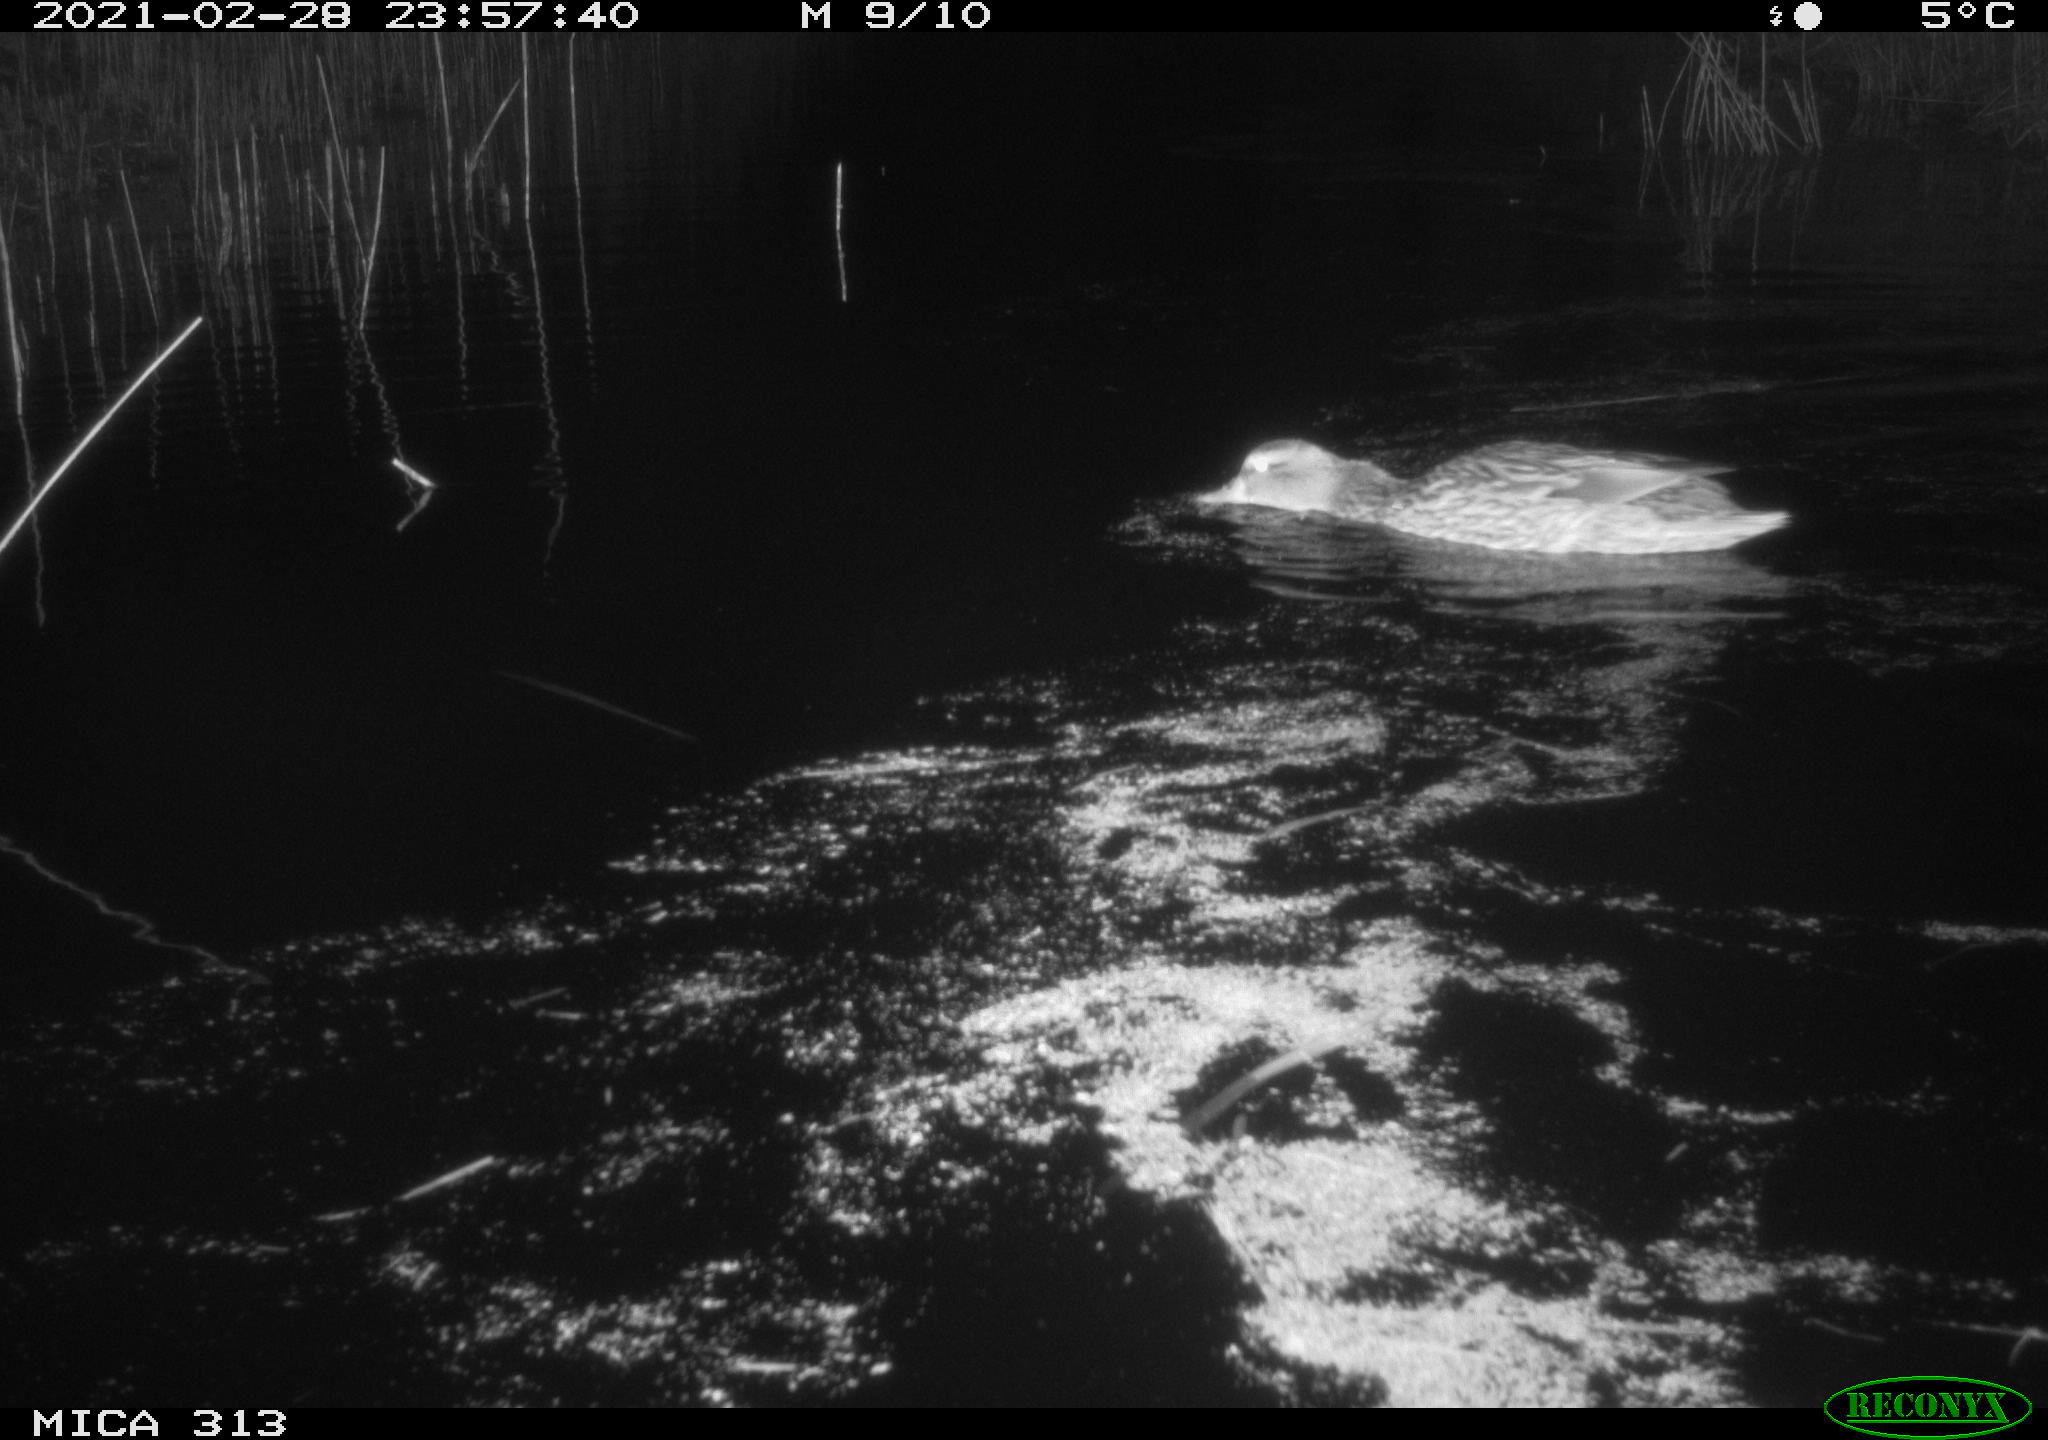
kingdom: Animalia
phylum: Chordata
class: Aves
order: Anseriformes
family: Anatidae
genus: Anas
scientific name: Anas
